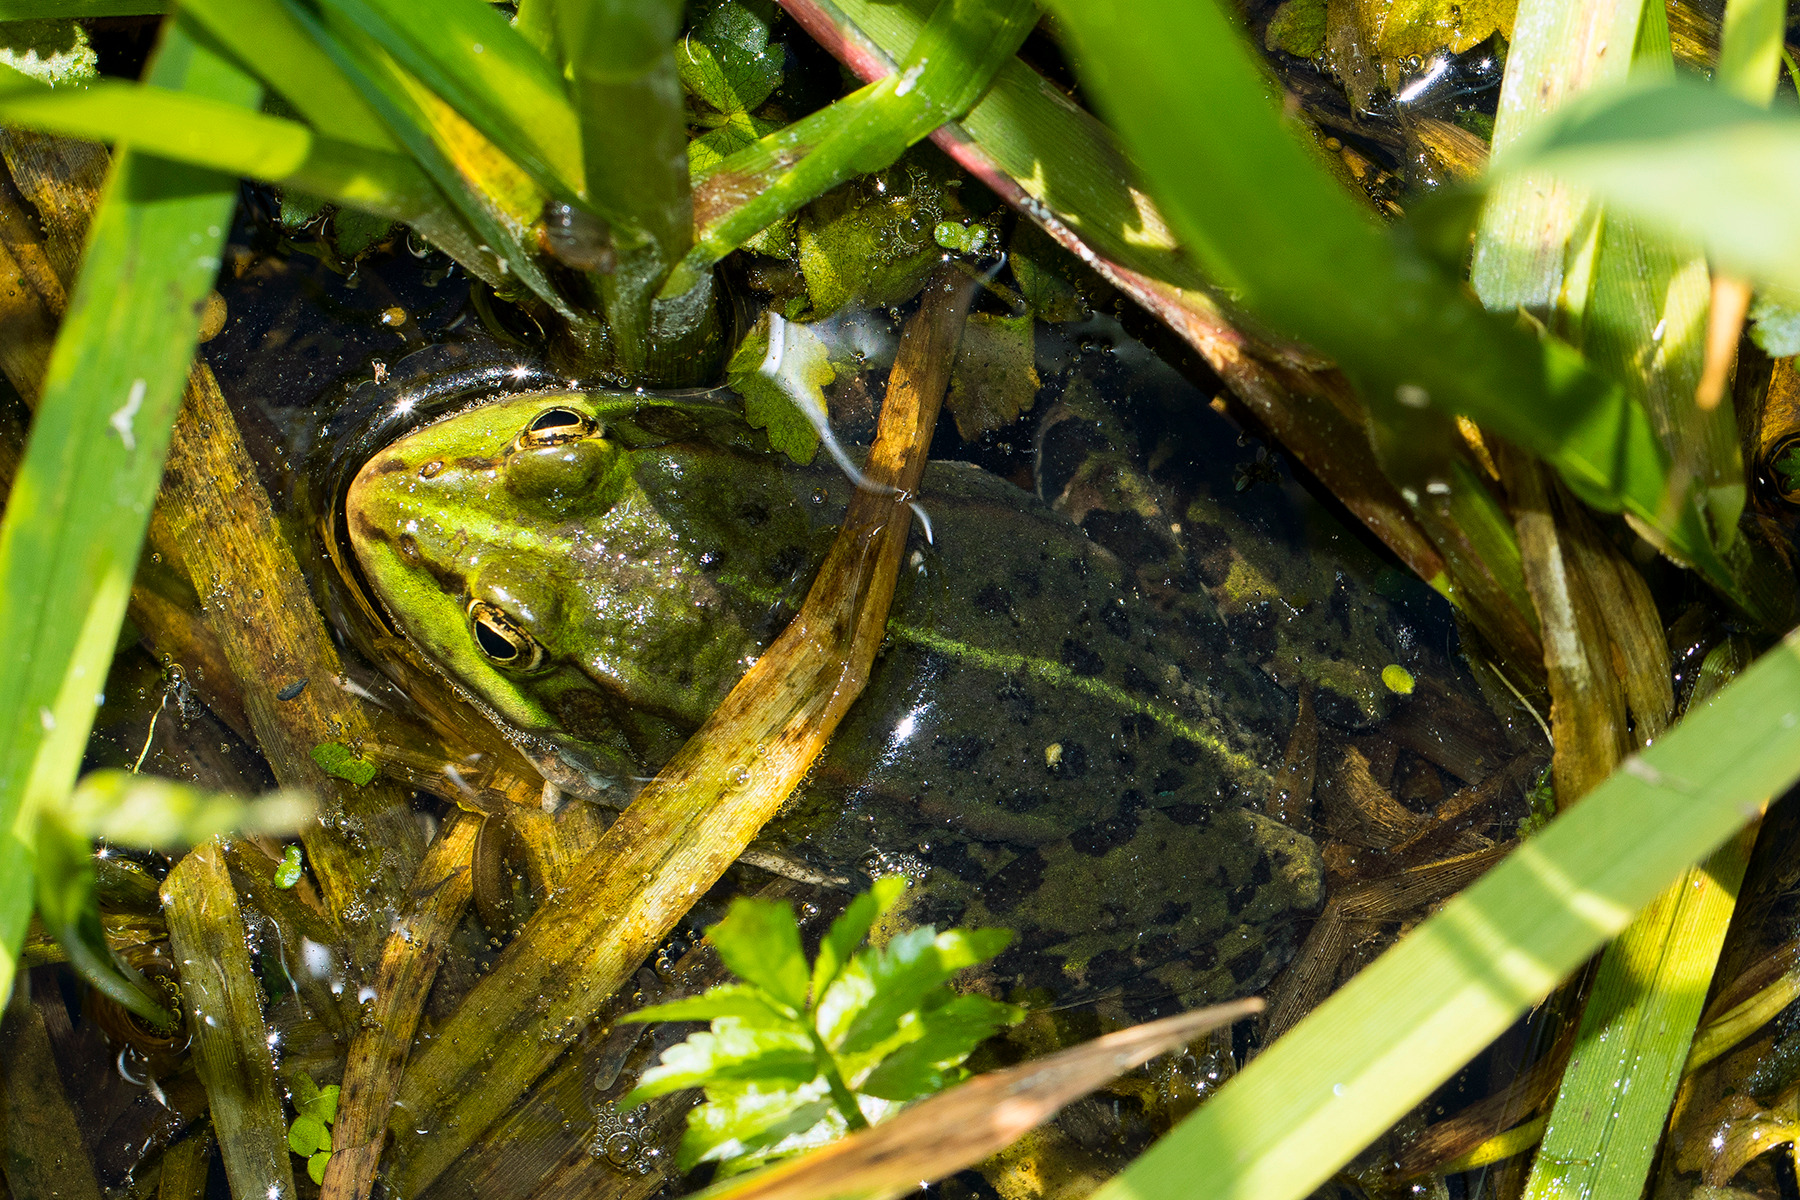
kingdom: Animalia
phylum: Chordata
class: Amphibia
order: Anura
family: Ranidae
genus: Pelophylax
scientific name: Pelophylax lessonae
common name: Grøn frø
